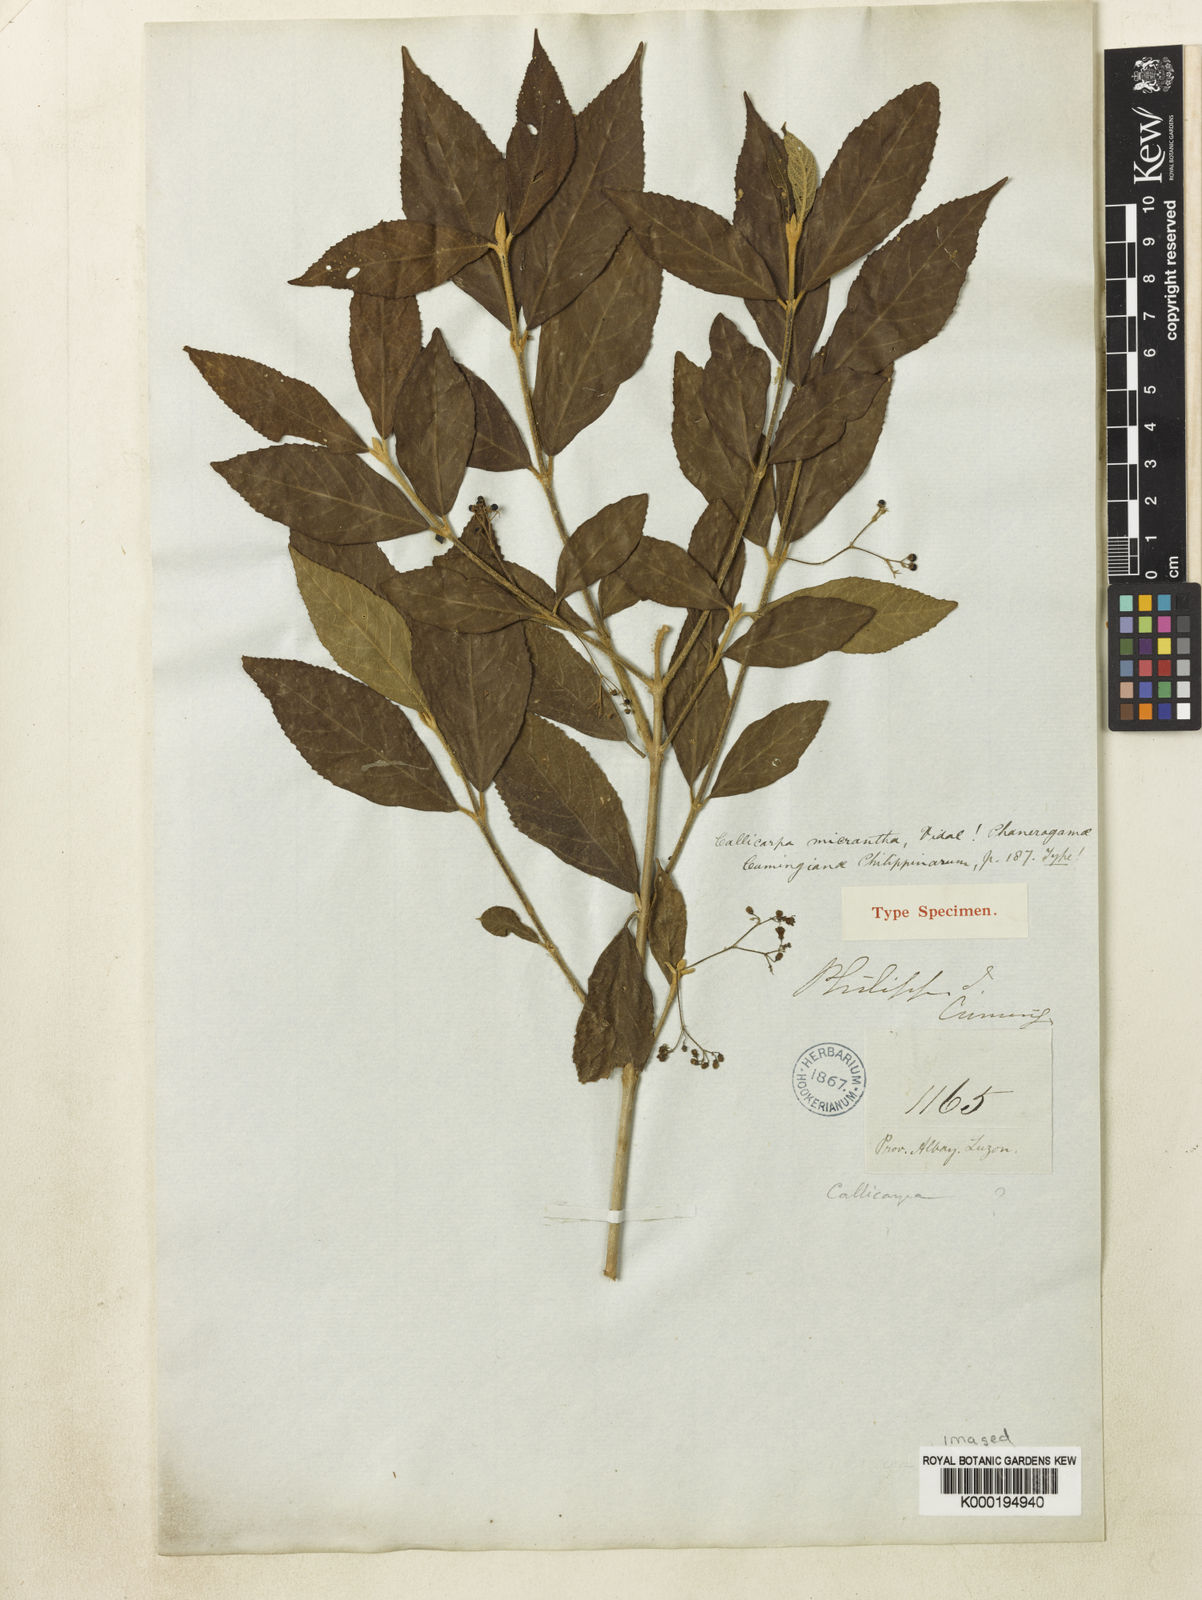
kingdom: Plantae
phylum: Tracheophyta
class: Magnoliopsida
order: Lamiales
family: Lamiaceae
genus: Callicarpa
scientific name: Callicarpa micrantha
